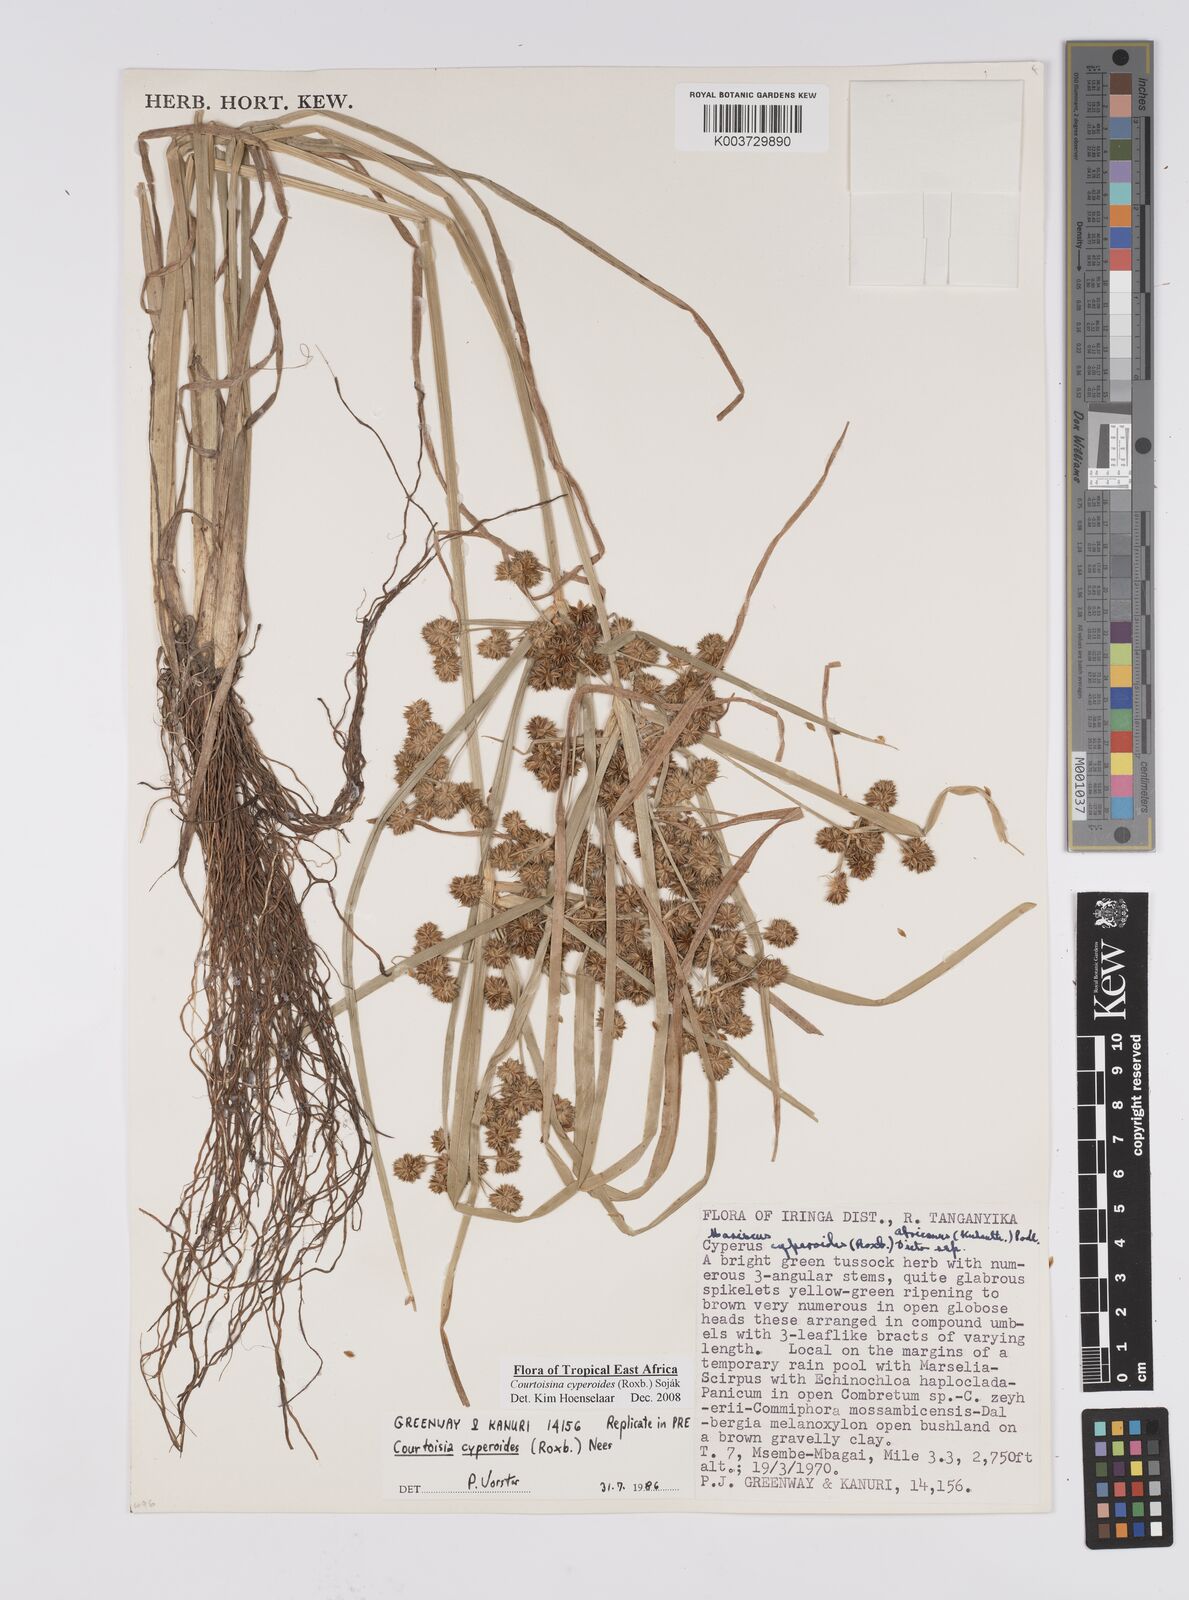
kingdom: Plantae
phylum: Tracheophyta
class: Liliopsida
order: Poales
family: Cyperaceae
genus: Cyperus
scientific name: Cyperus cyperoides
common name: Pacific island flat sedge
